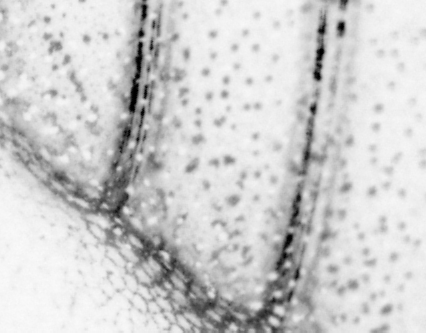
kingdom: Animalia
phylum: Chordata
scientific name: Chordata
